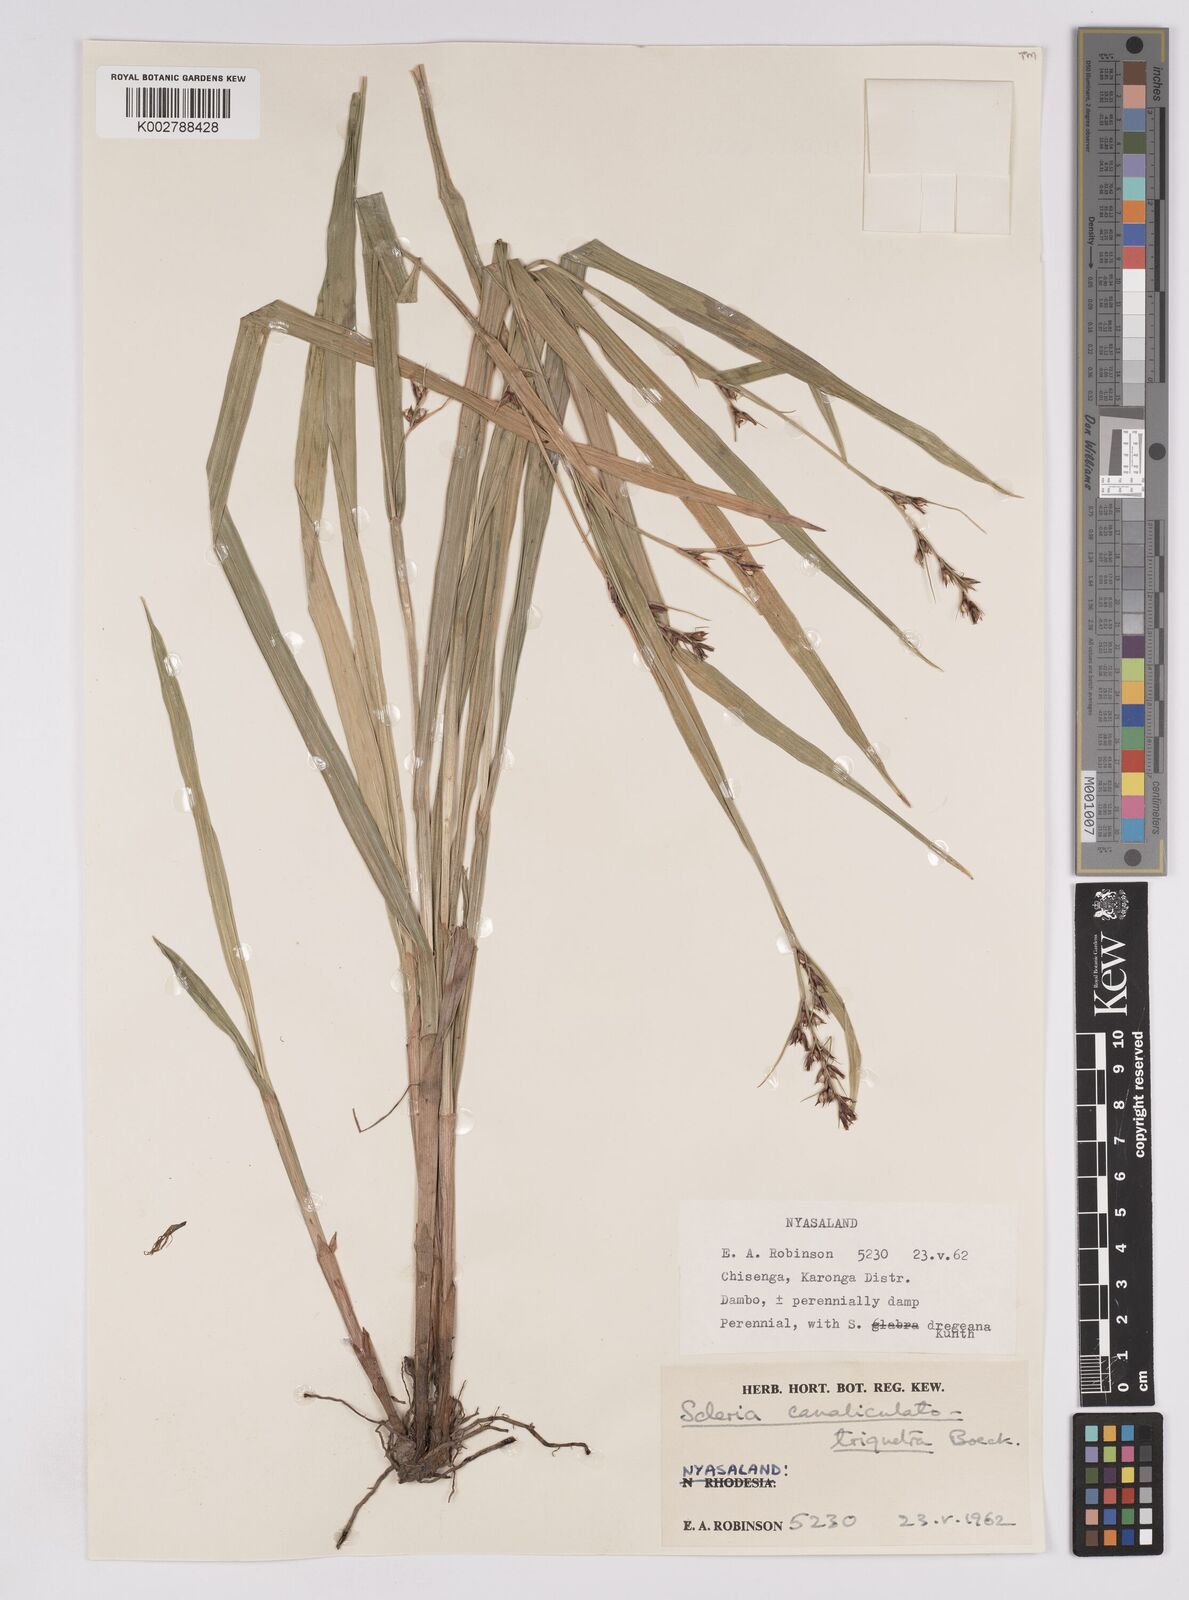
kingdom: Plantae
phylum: Tracheophyta
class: Liliopsida
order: Poales
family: Cyperaceae
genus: Scleria
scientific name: Scleria lagoensis
